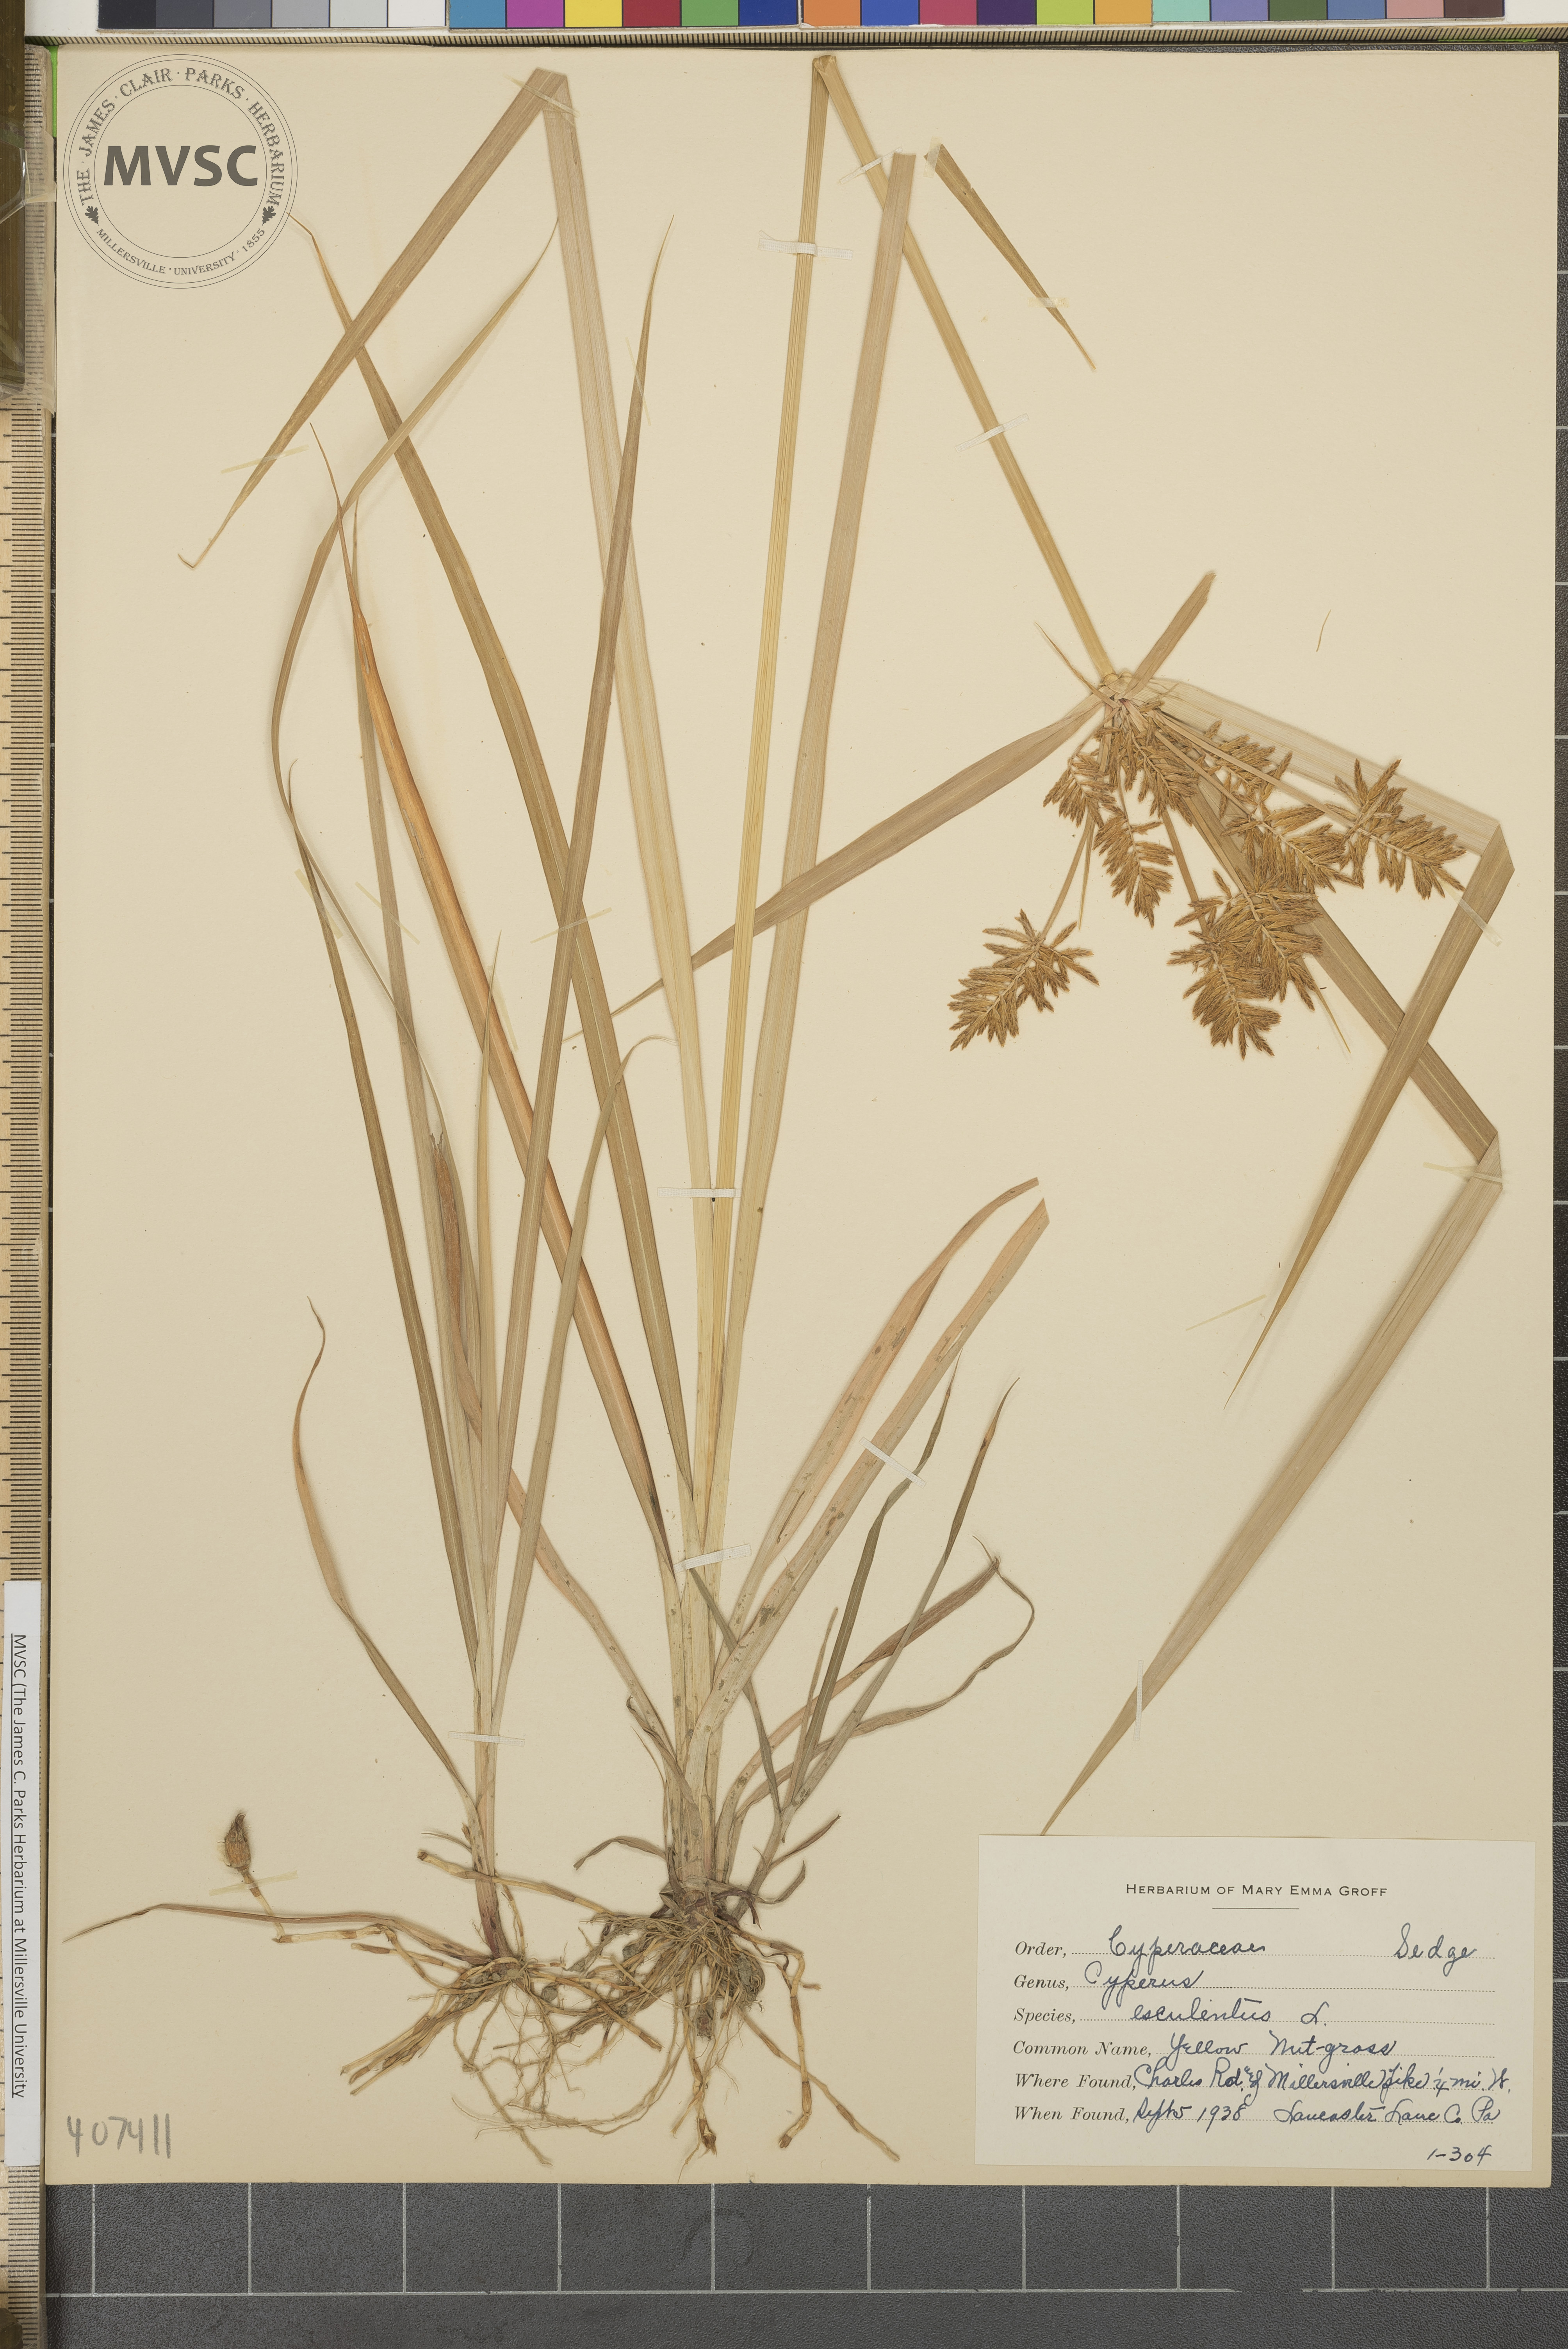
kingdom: Plantae
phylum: Tracheophyta
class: Liliopsida
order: Poales
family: Cyperaceae
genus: Cyperus
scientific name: Cyperus esculentus
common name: Yellow Nut-grass
